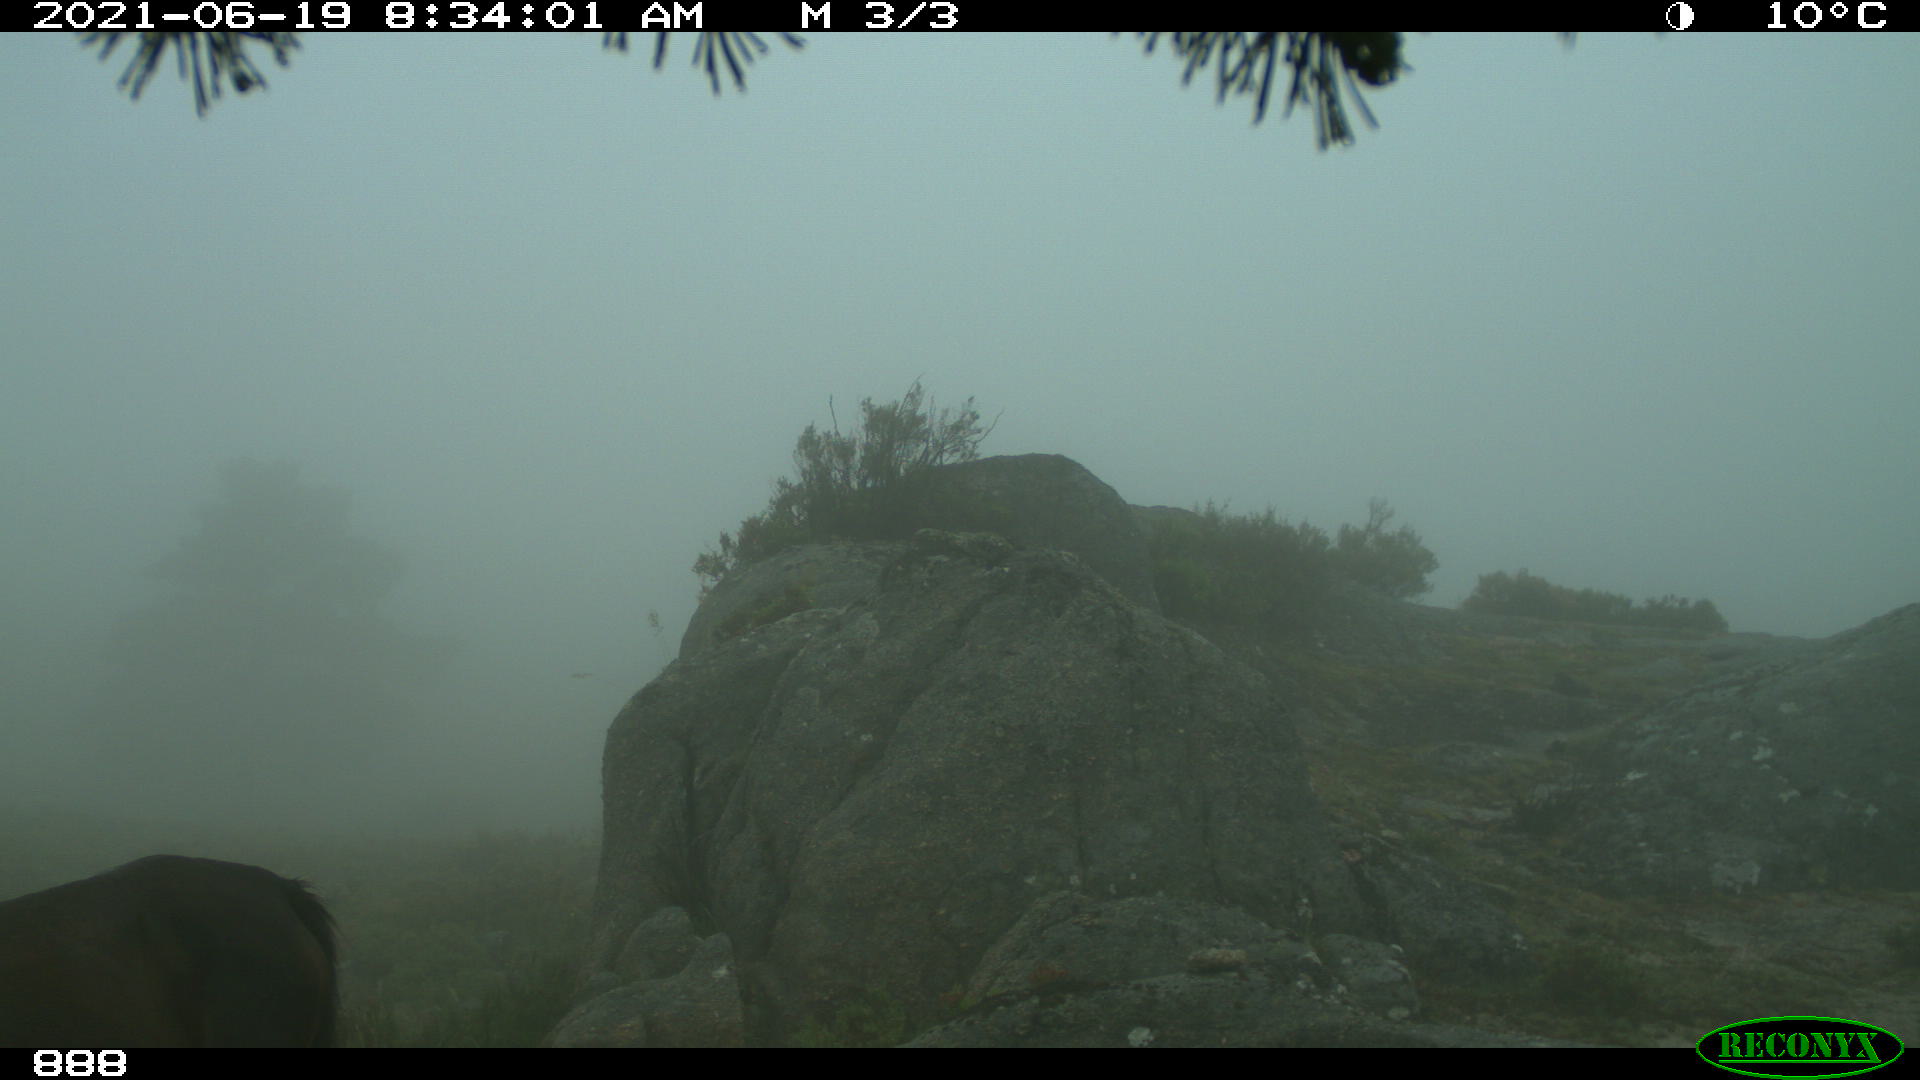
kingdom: Animalia
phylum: Chordata
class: Mammalia
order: Perissodactyla
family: Equidae
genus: Equus
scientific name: Equus caballus
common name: Horse
